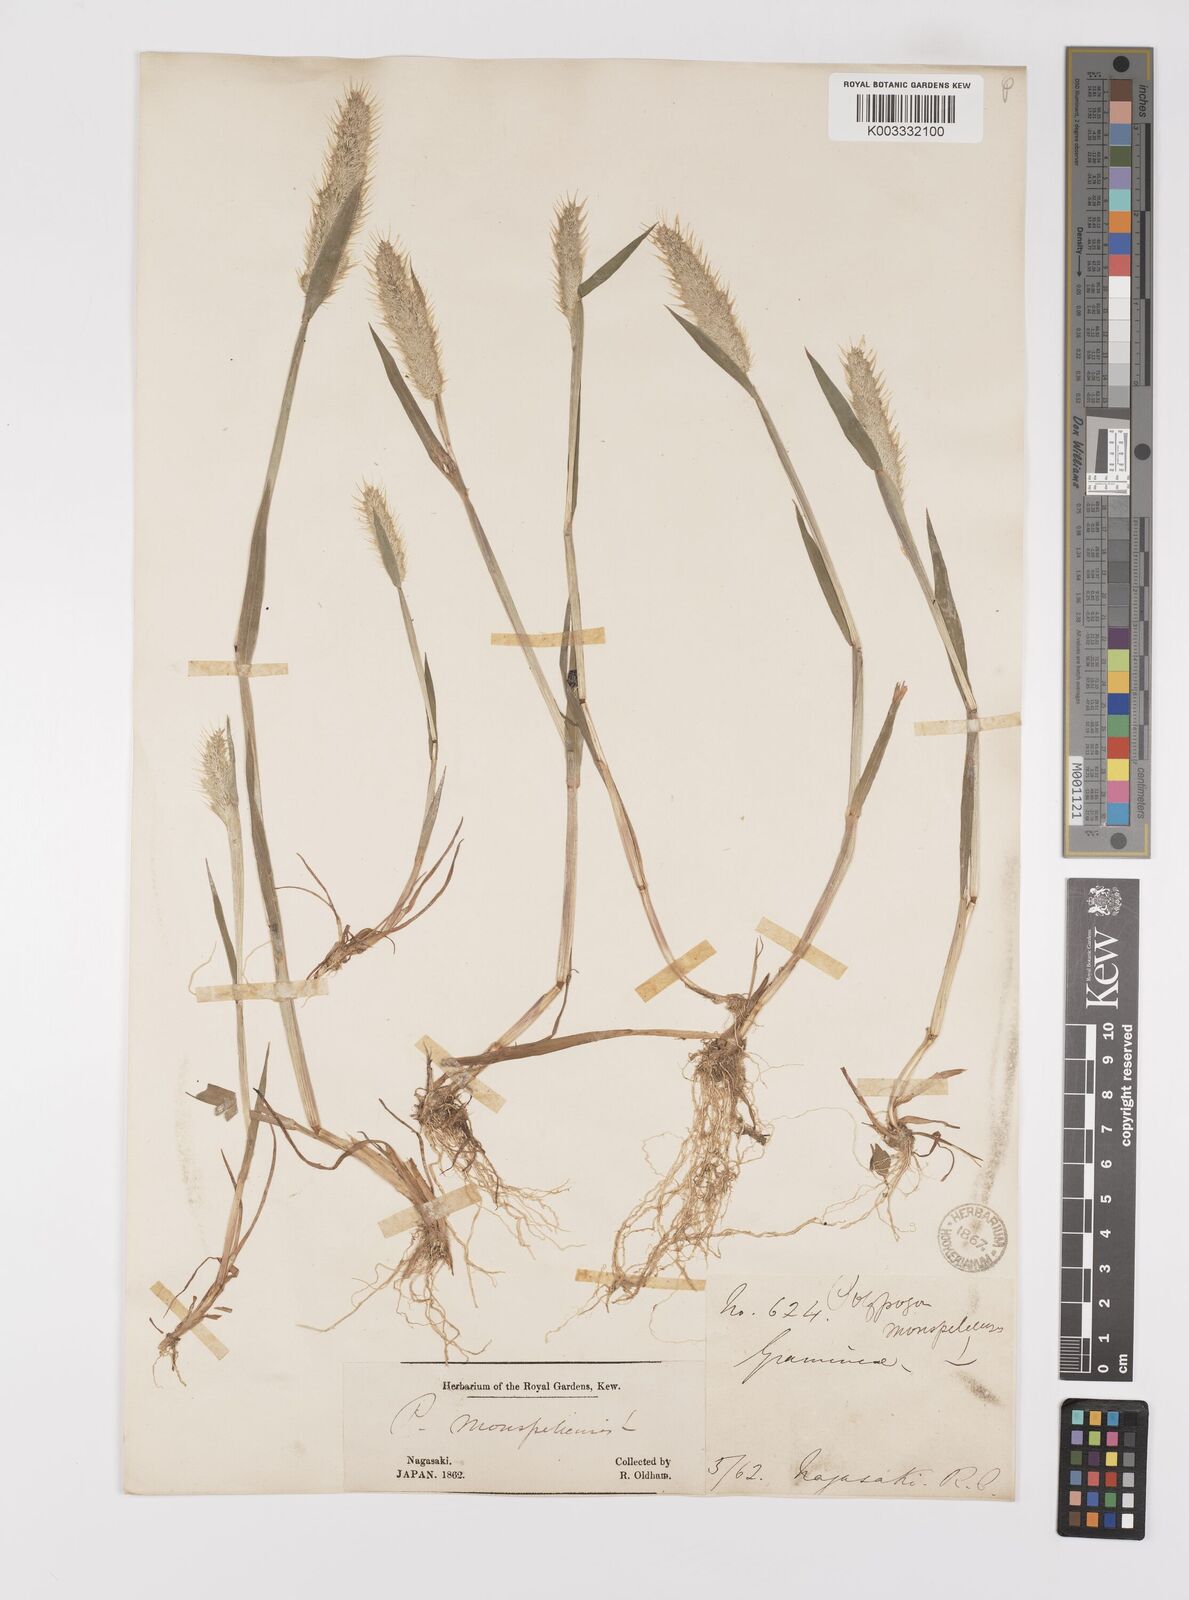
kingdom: Plantae
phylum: Tracheophyta
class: Liliopsida
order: Poales
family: Poaceae
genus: Polypogon
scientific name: Polypogon monspeliensis
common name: Annual rabbitsfoot grass
